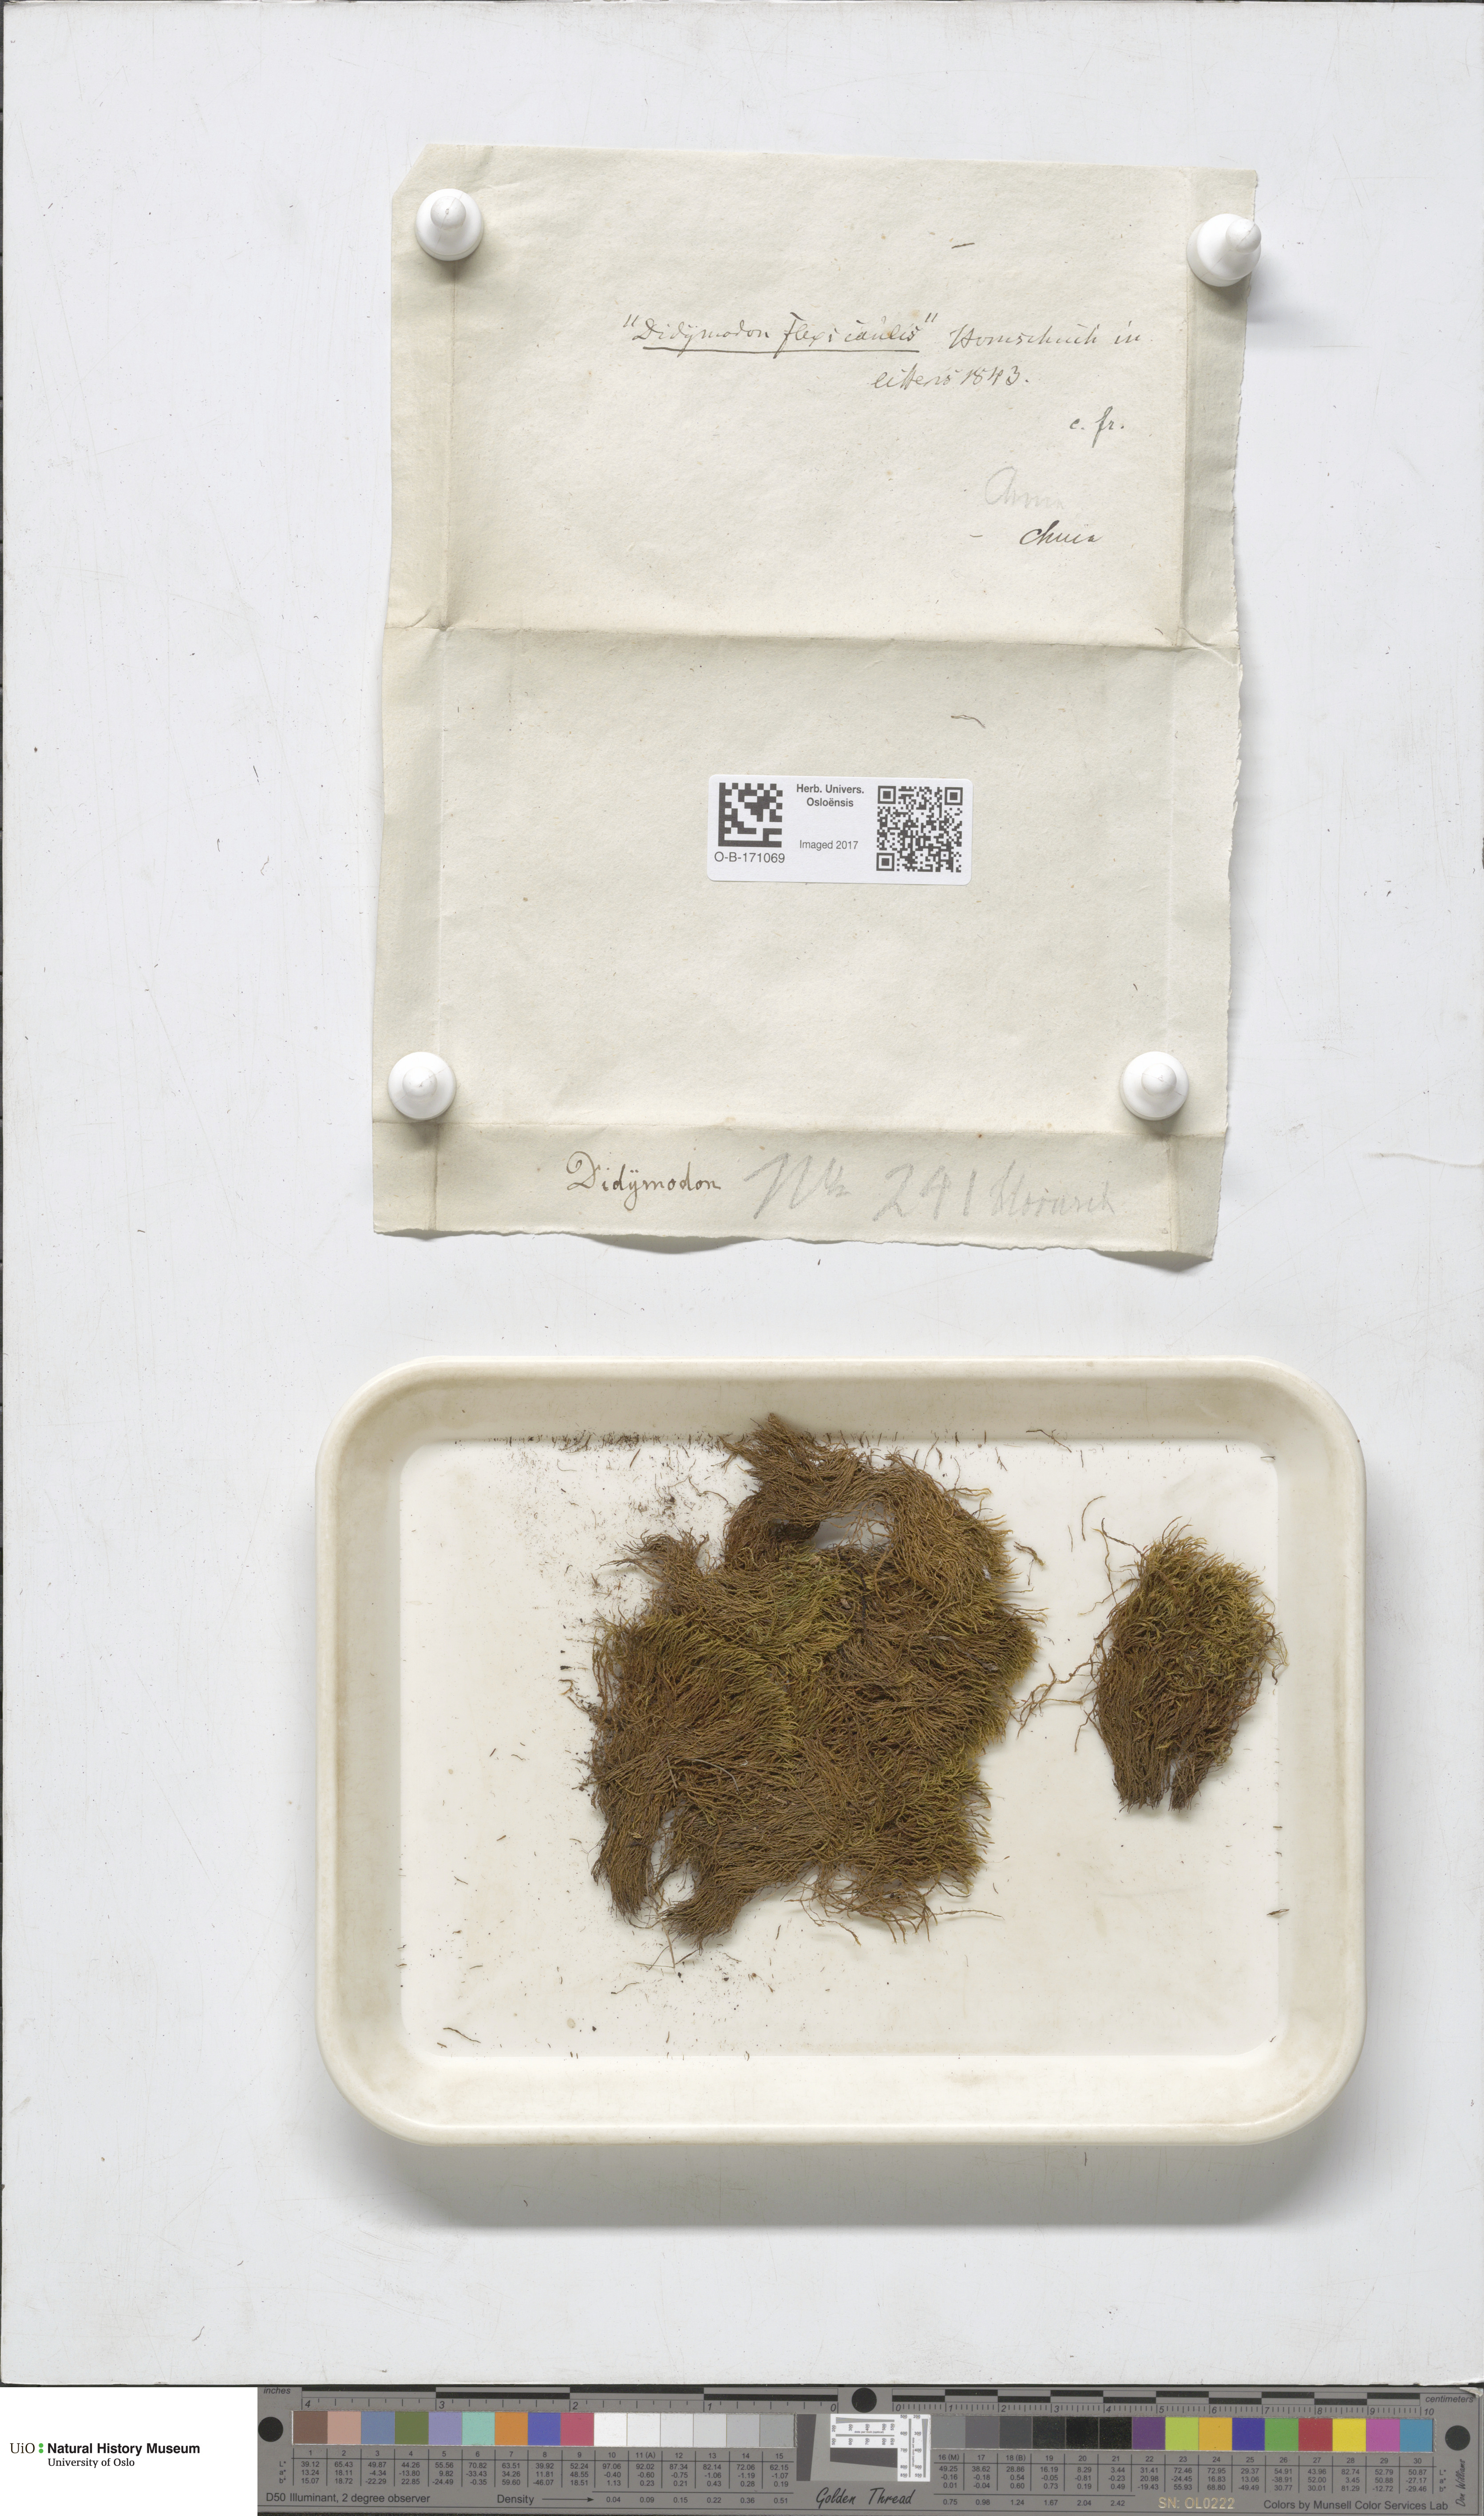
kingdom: Plantae
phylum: Bryophyta
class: Bryopsida
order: Scouleriales
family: Flexitrichaceae
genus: Flexitrichum
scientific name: Flexitrichum flexicaule
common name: Bendy ditrichum
